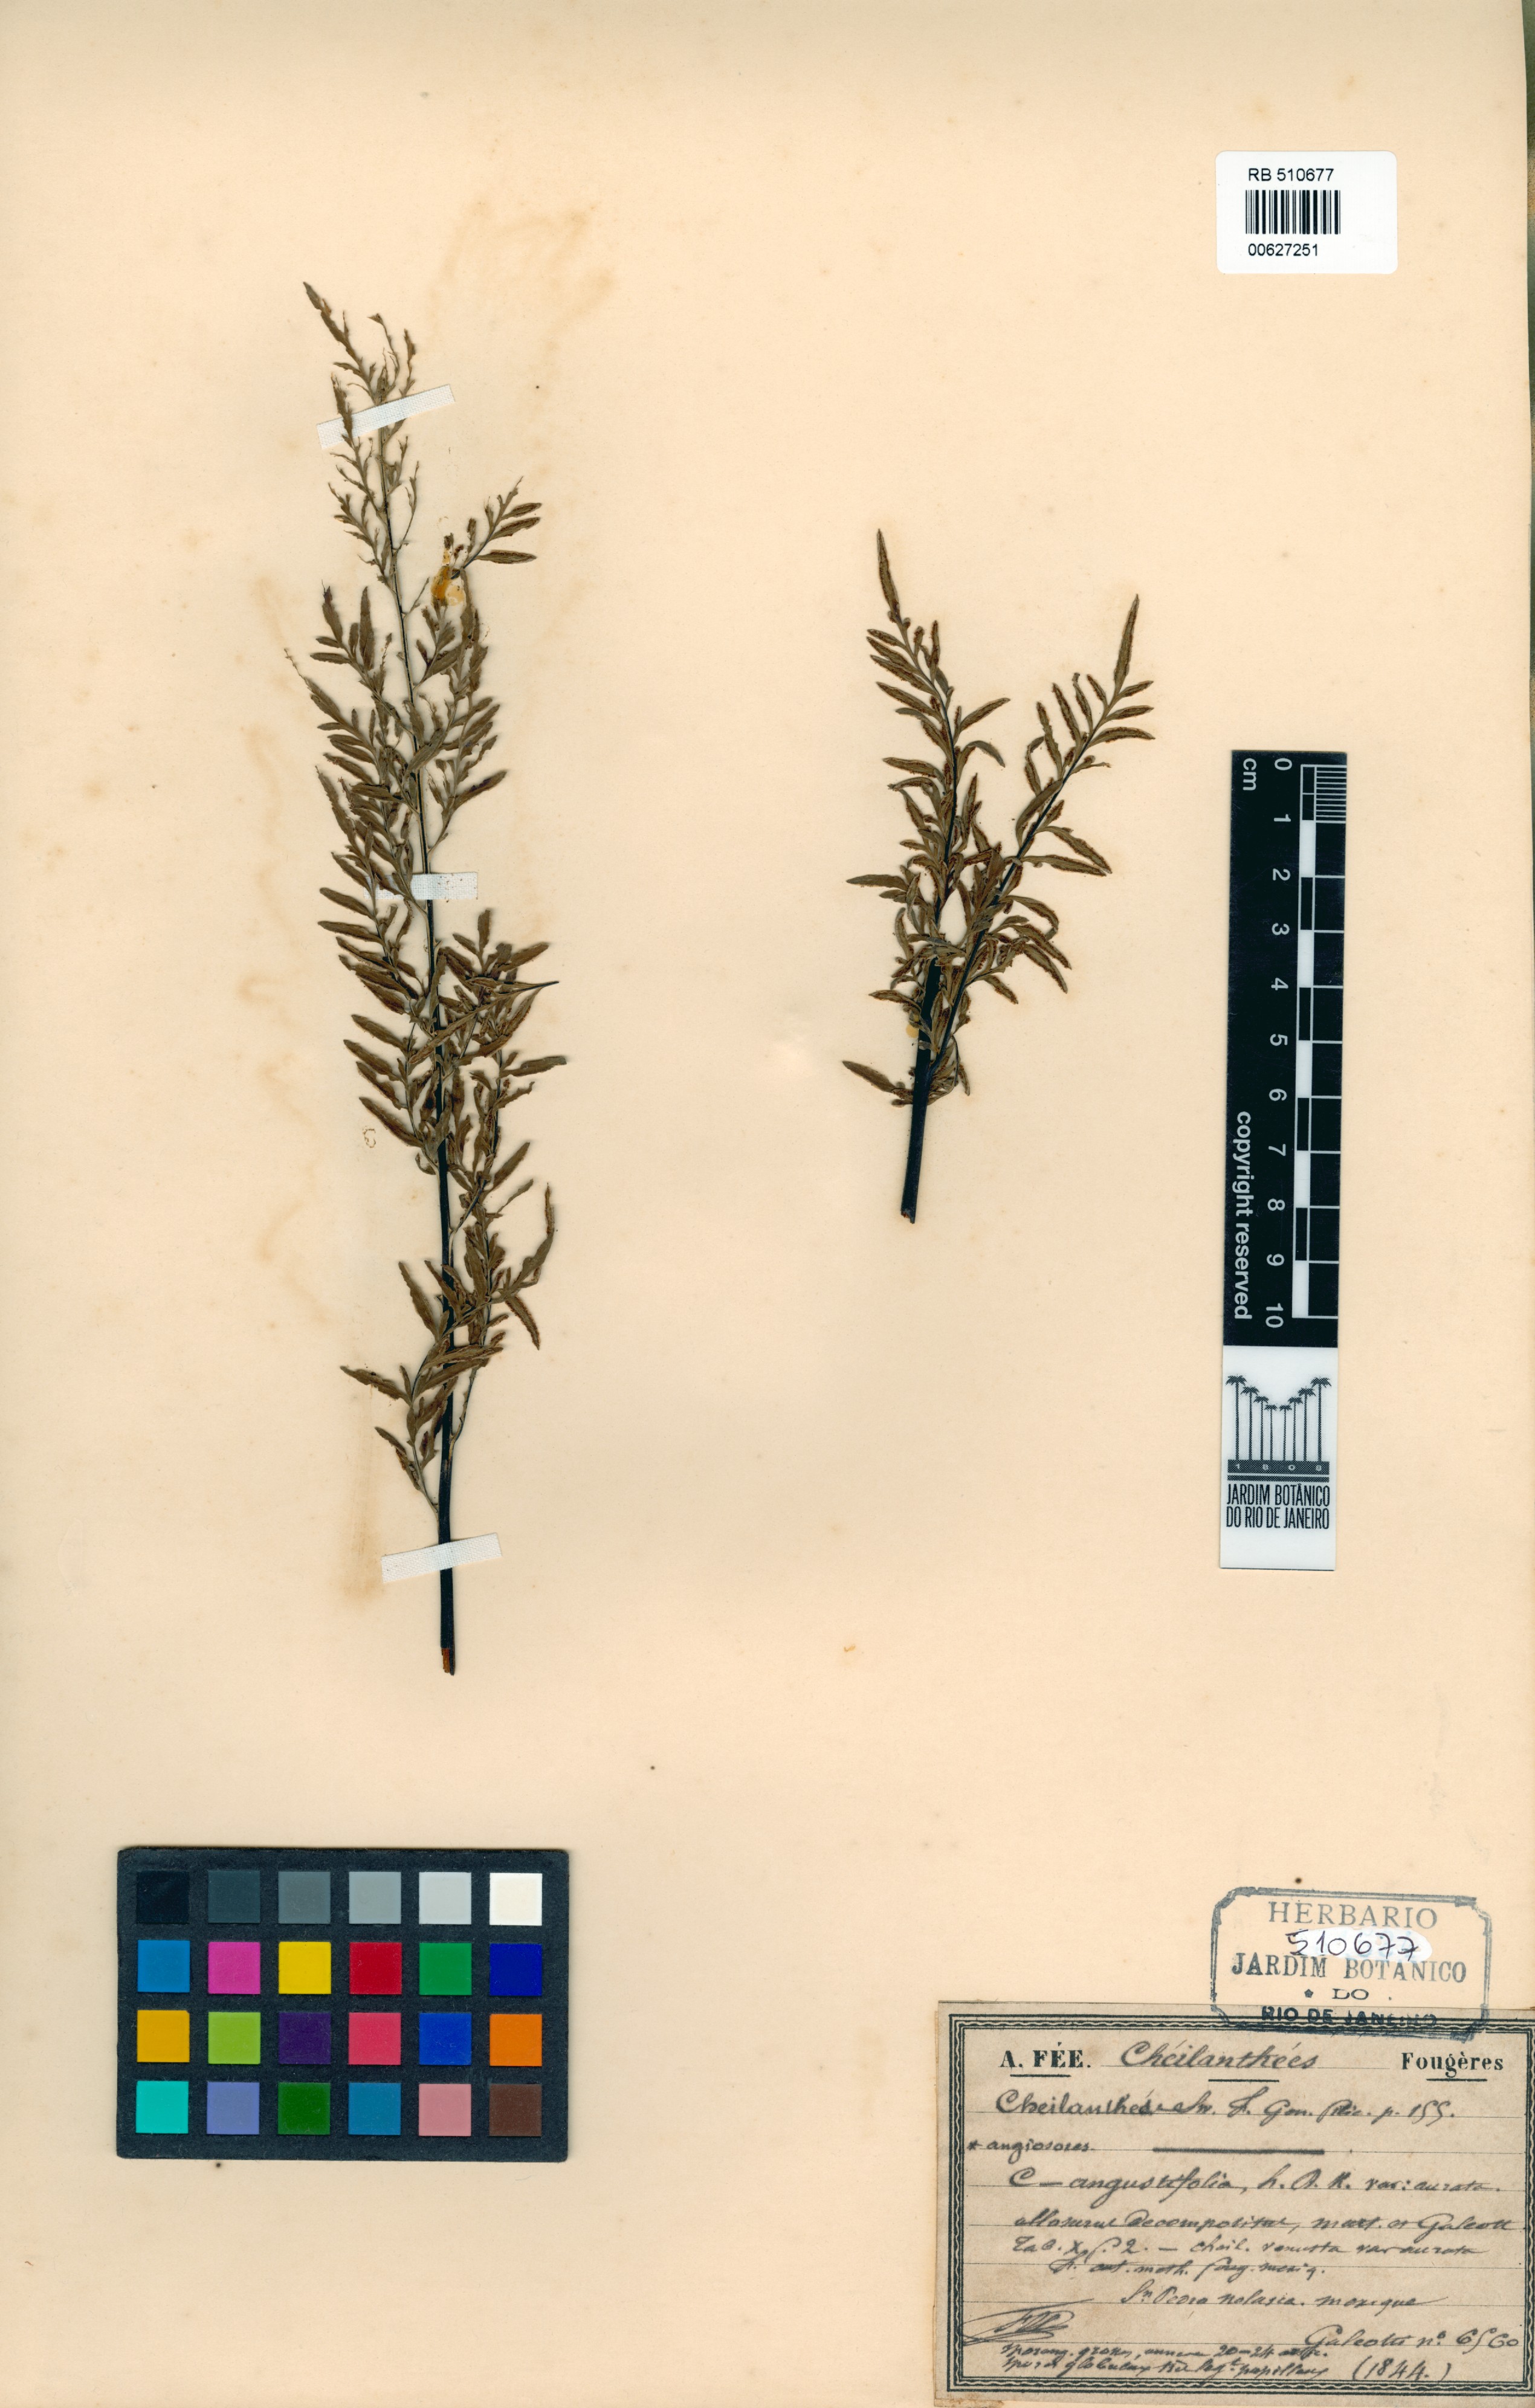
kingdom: Plantae
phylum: Tracheophyta
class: Polypodiopsida
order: Polypodiales
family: Pteridaceae
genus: Gaga
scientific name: Gaga angustifolia
